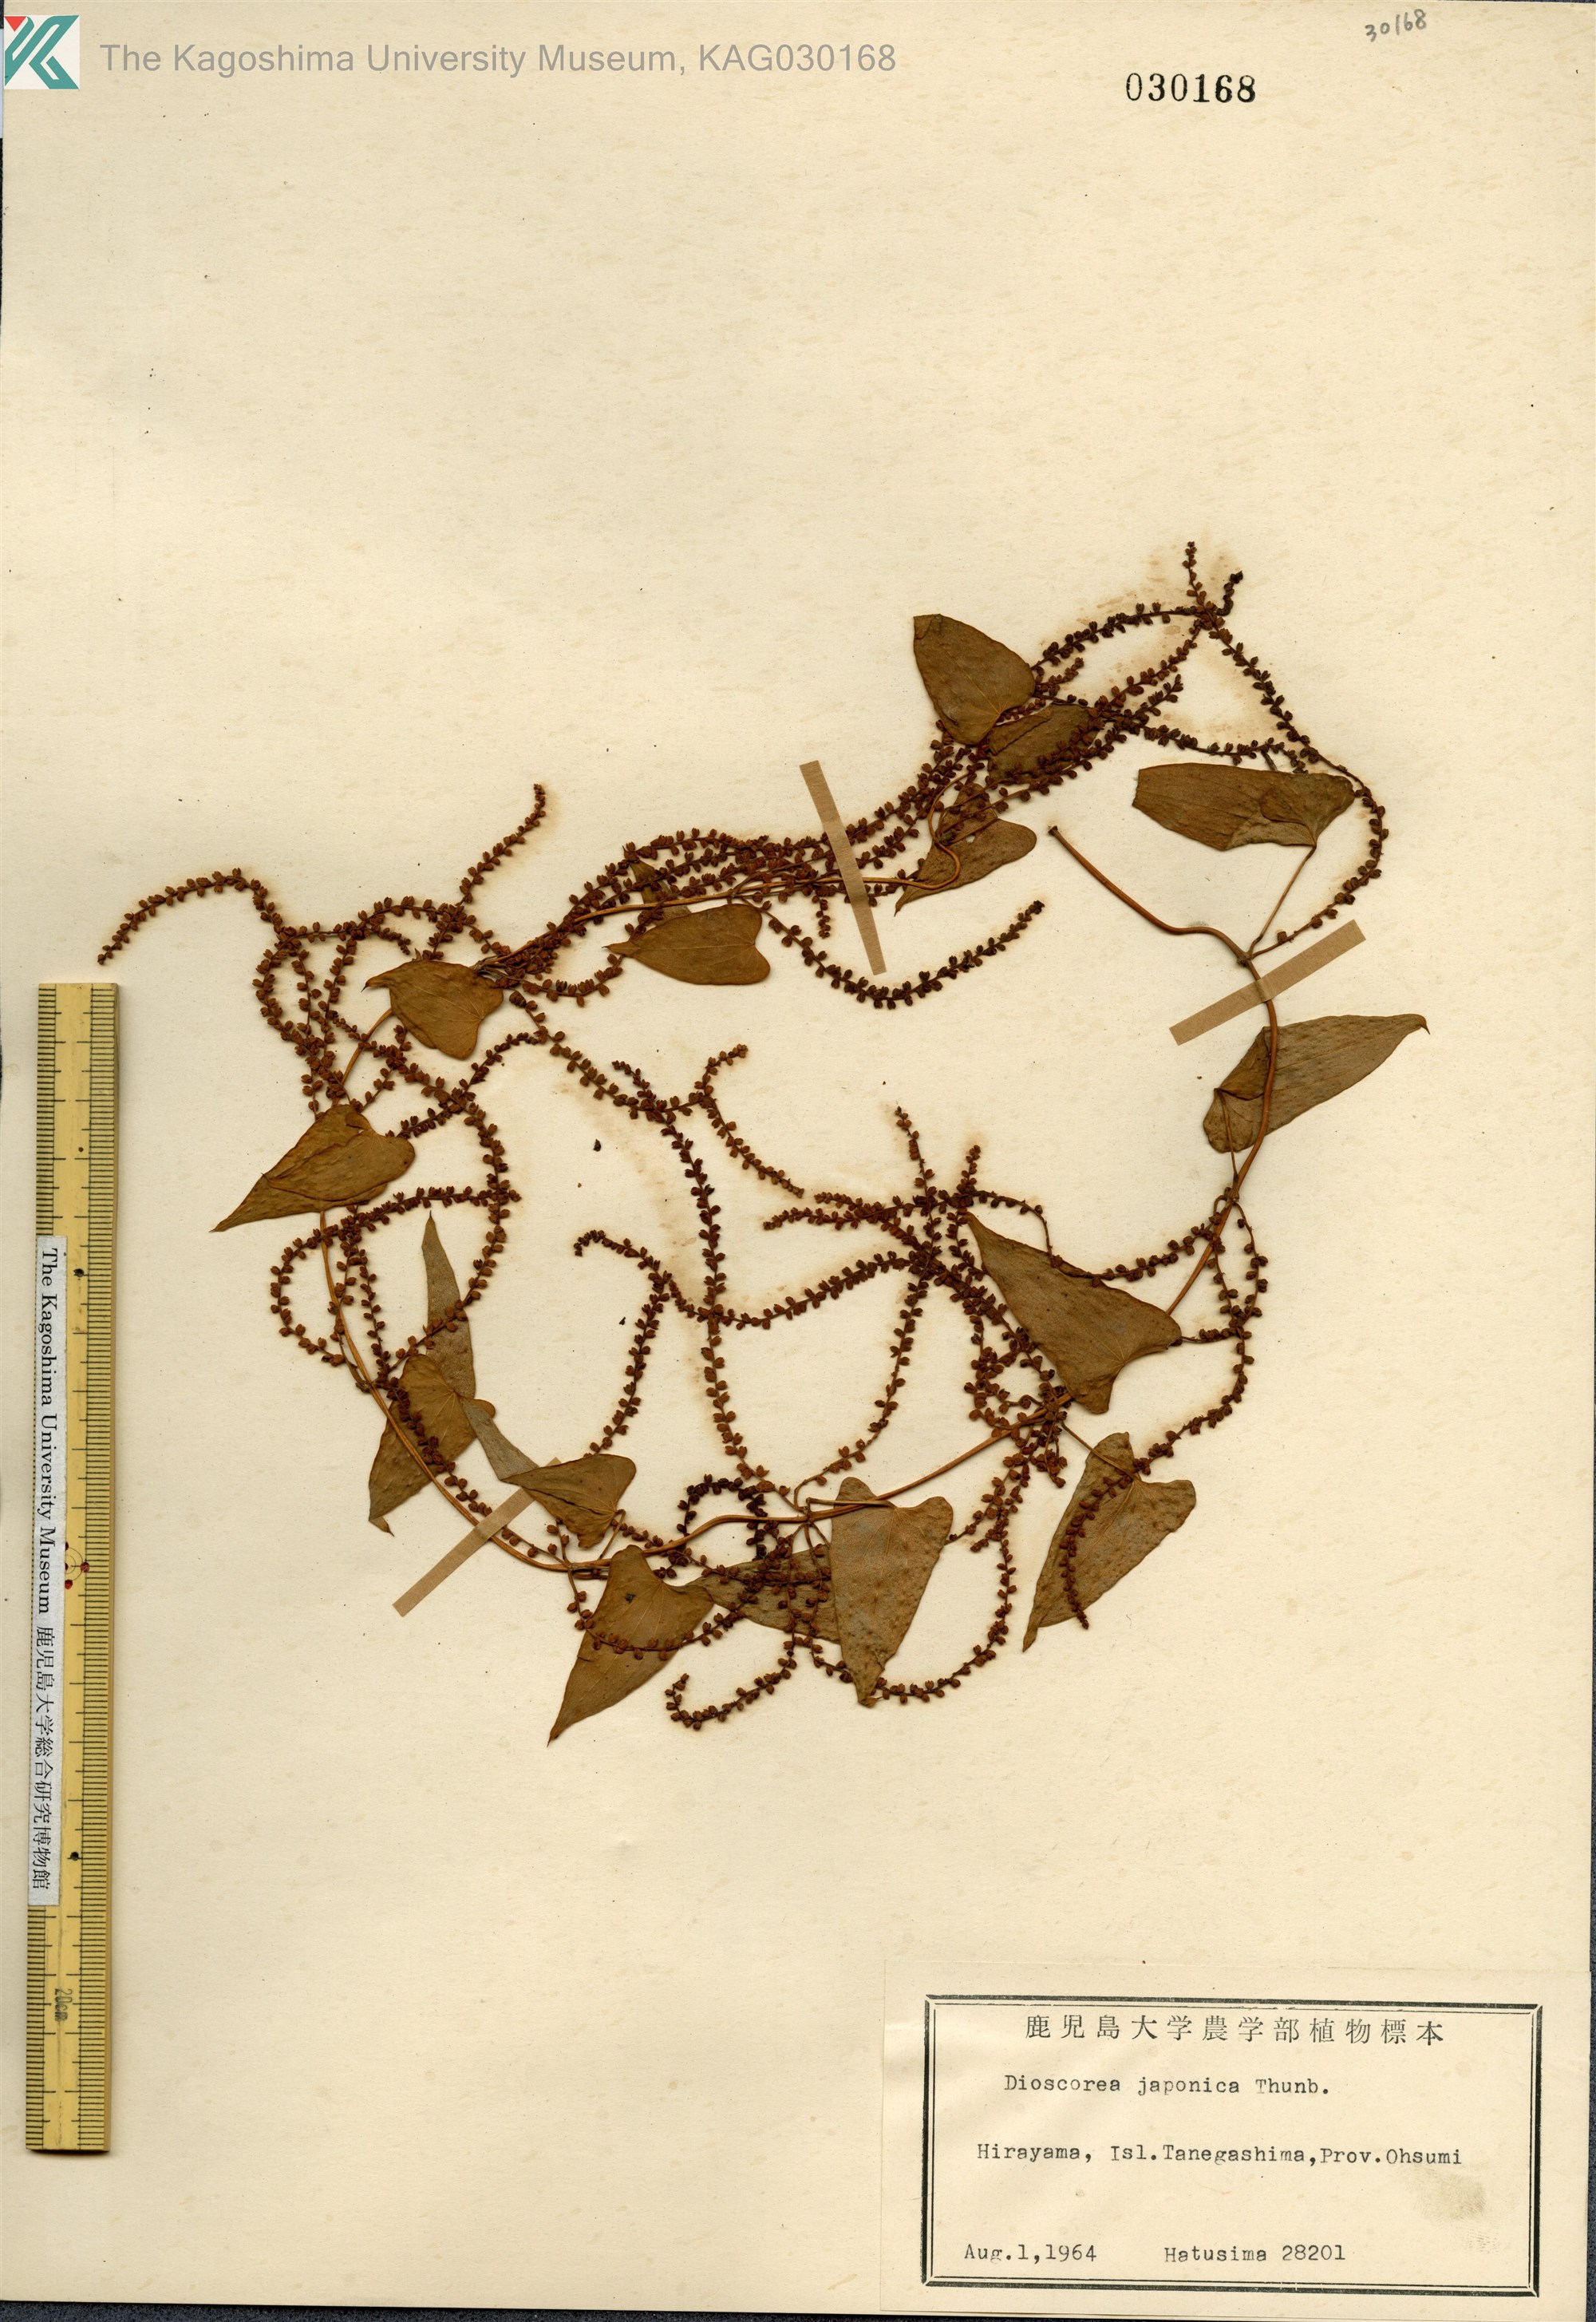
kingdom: Plantae
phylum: Tracheophyta
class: Liliopsida
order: Dioscoreales
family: Dioscoreaceae
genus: Dioscorea
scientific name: Dioscorea japonica
